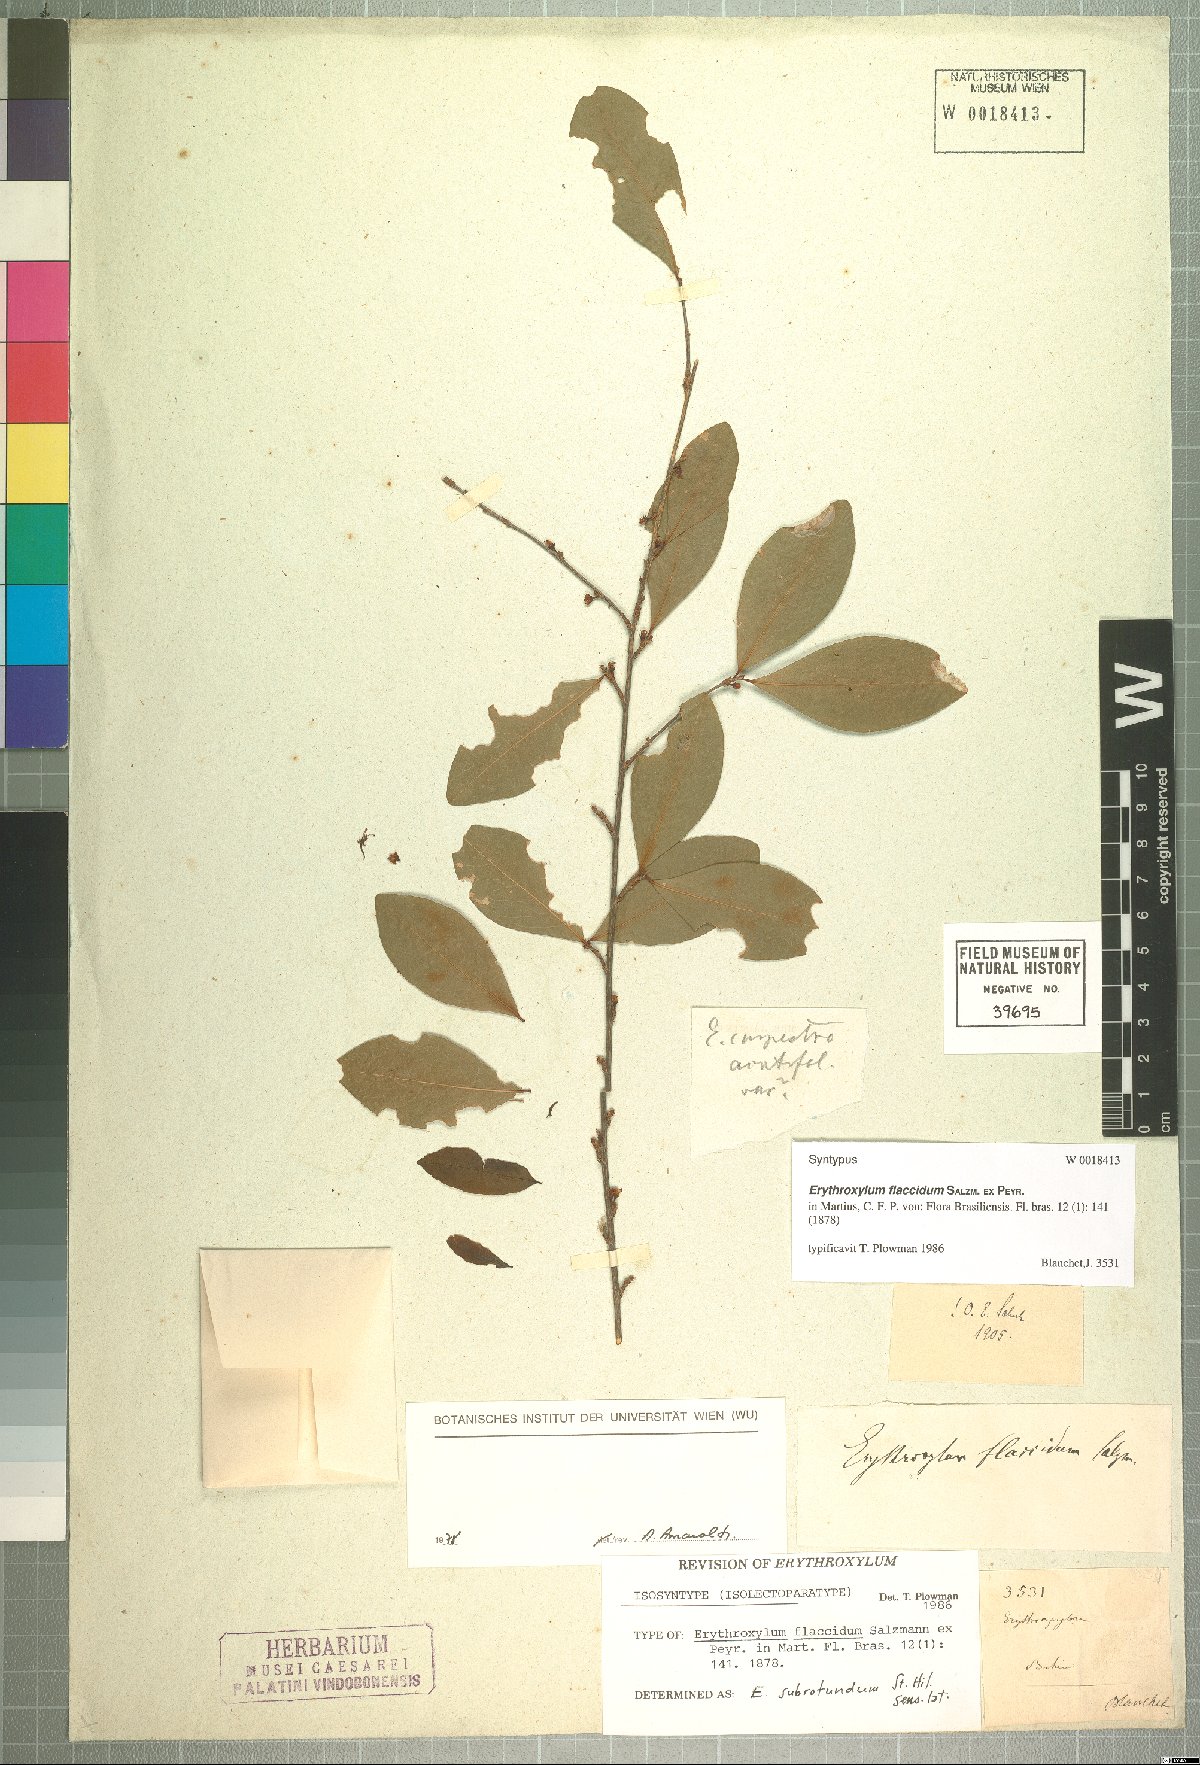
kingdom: Plantae
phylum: Tracheophyta
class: Magnoliopsida
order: Malpighiales
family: Erythroxylaceae
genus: Erythroxylum
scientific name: Erythroxylum flaccidum
